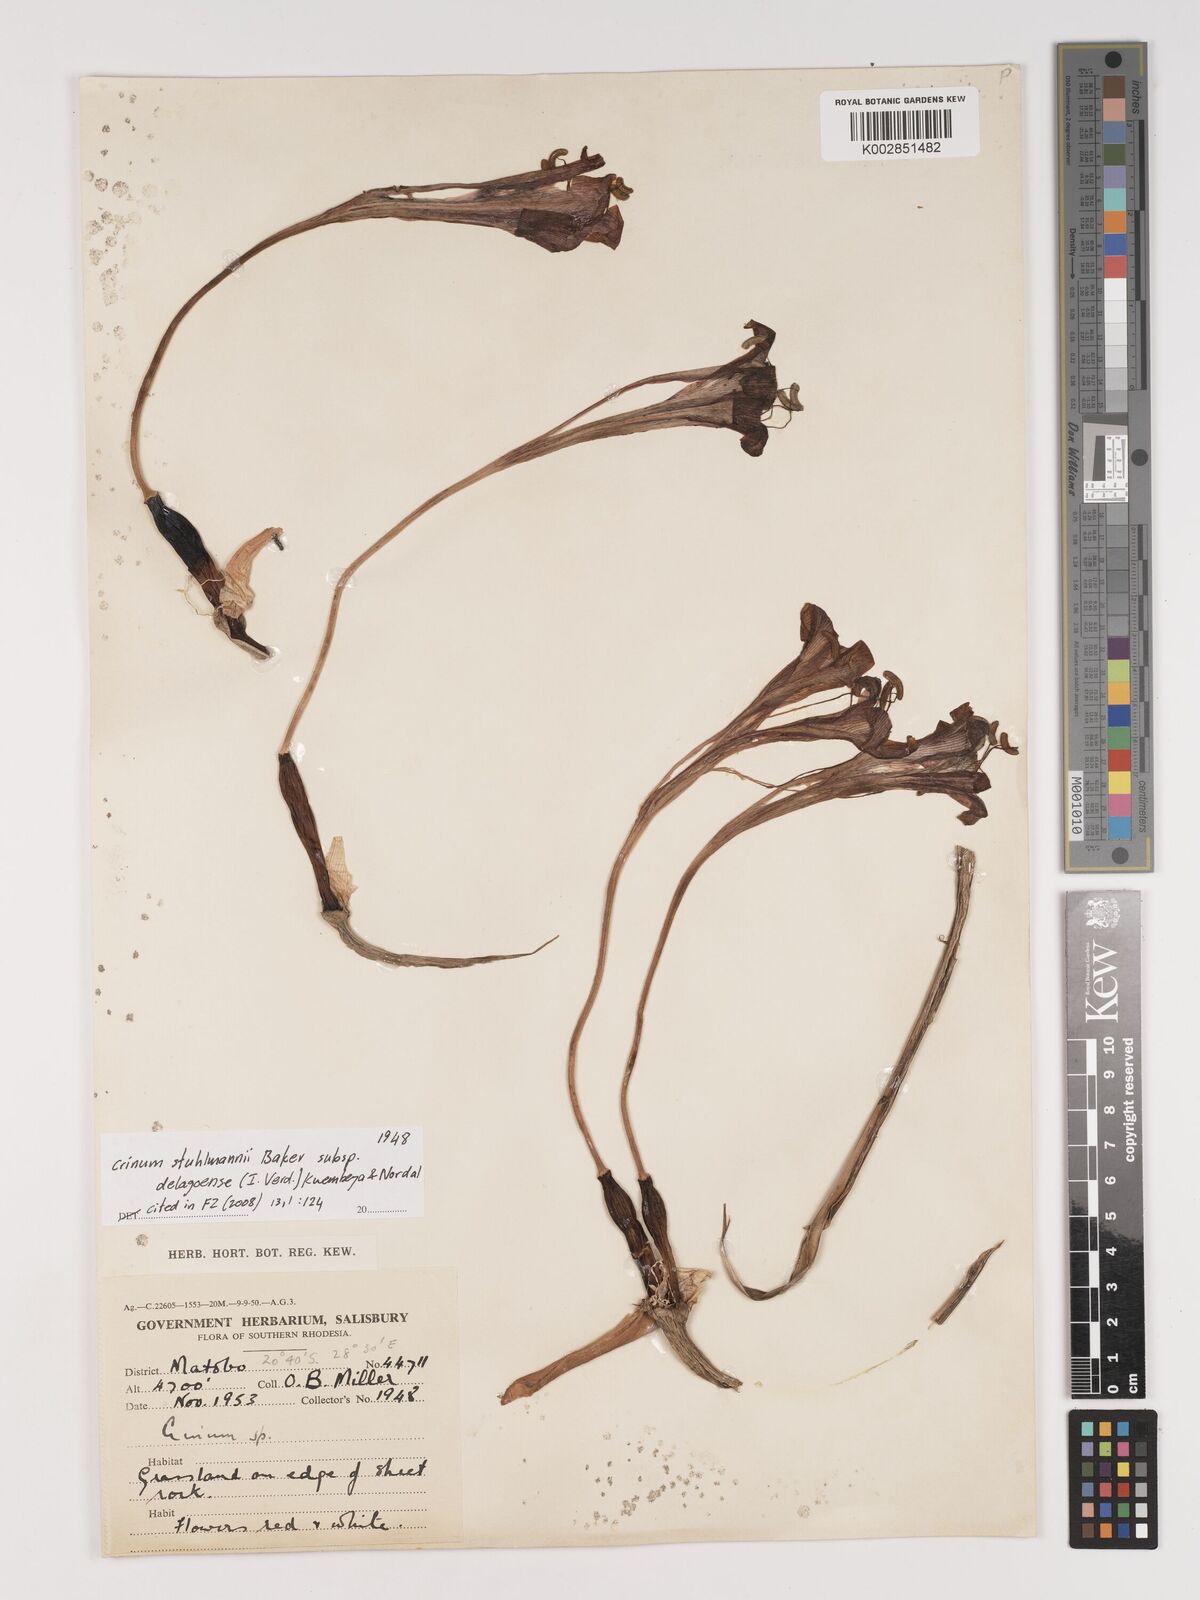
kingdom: Plantae
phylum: Tracheophyta
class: Liliopsida
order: Asparagales
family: Amaryllidaceae
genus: Crinum
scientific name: Crinum stuhlmannii
